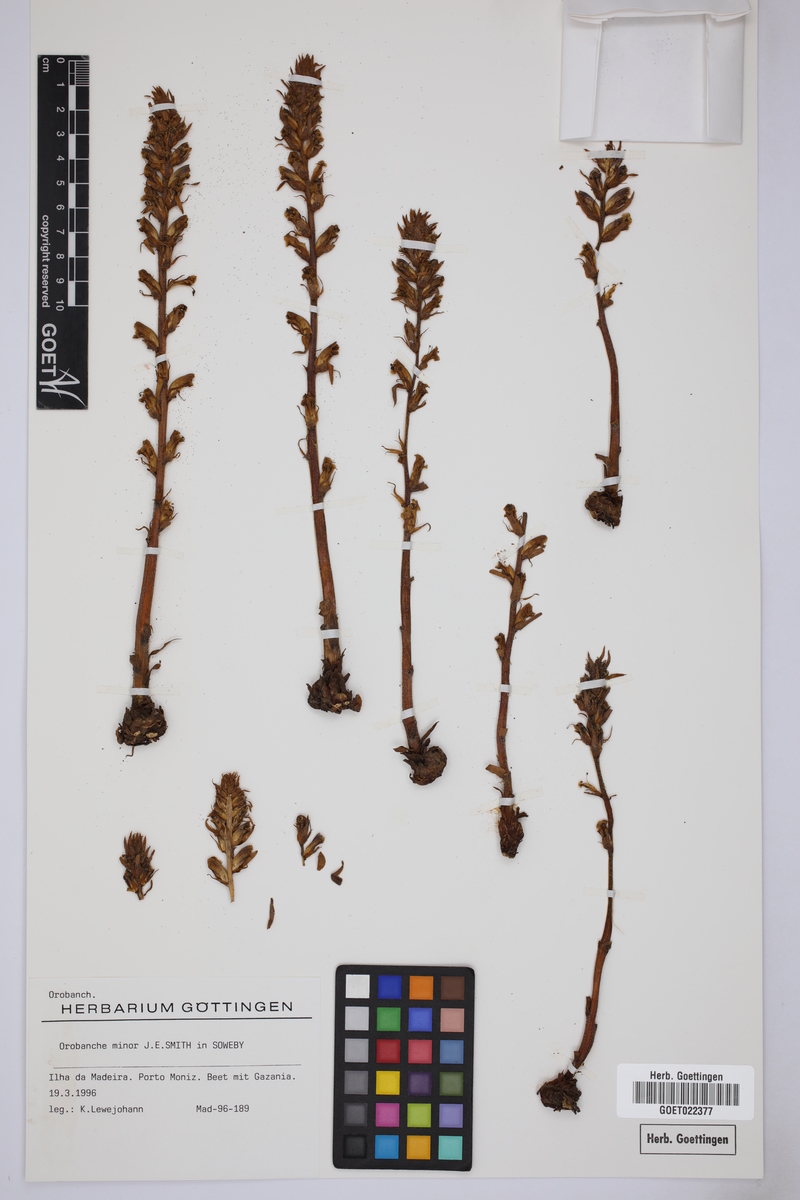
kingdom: Plantae
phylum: Tracheophyta
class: Magnoliopsida
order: Lamiales
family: Orobanchaceae
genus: Orobanche
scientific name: Orobanche minor
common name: Common broomrape
